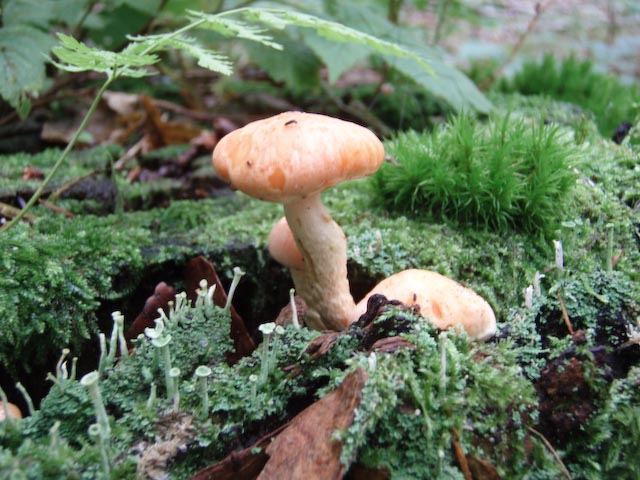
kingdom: Fungi
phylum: Basidiomycota
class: Agaricomycetes
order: Agaricales
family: Strophariaceae
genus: Pyrrhulomyces
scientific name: Pyrrhulomyces astragalinus
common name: safran-skælhat
